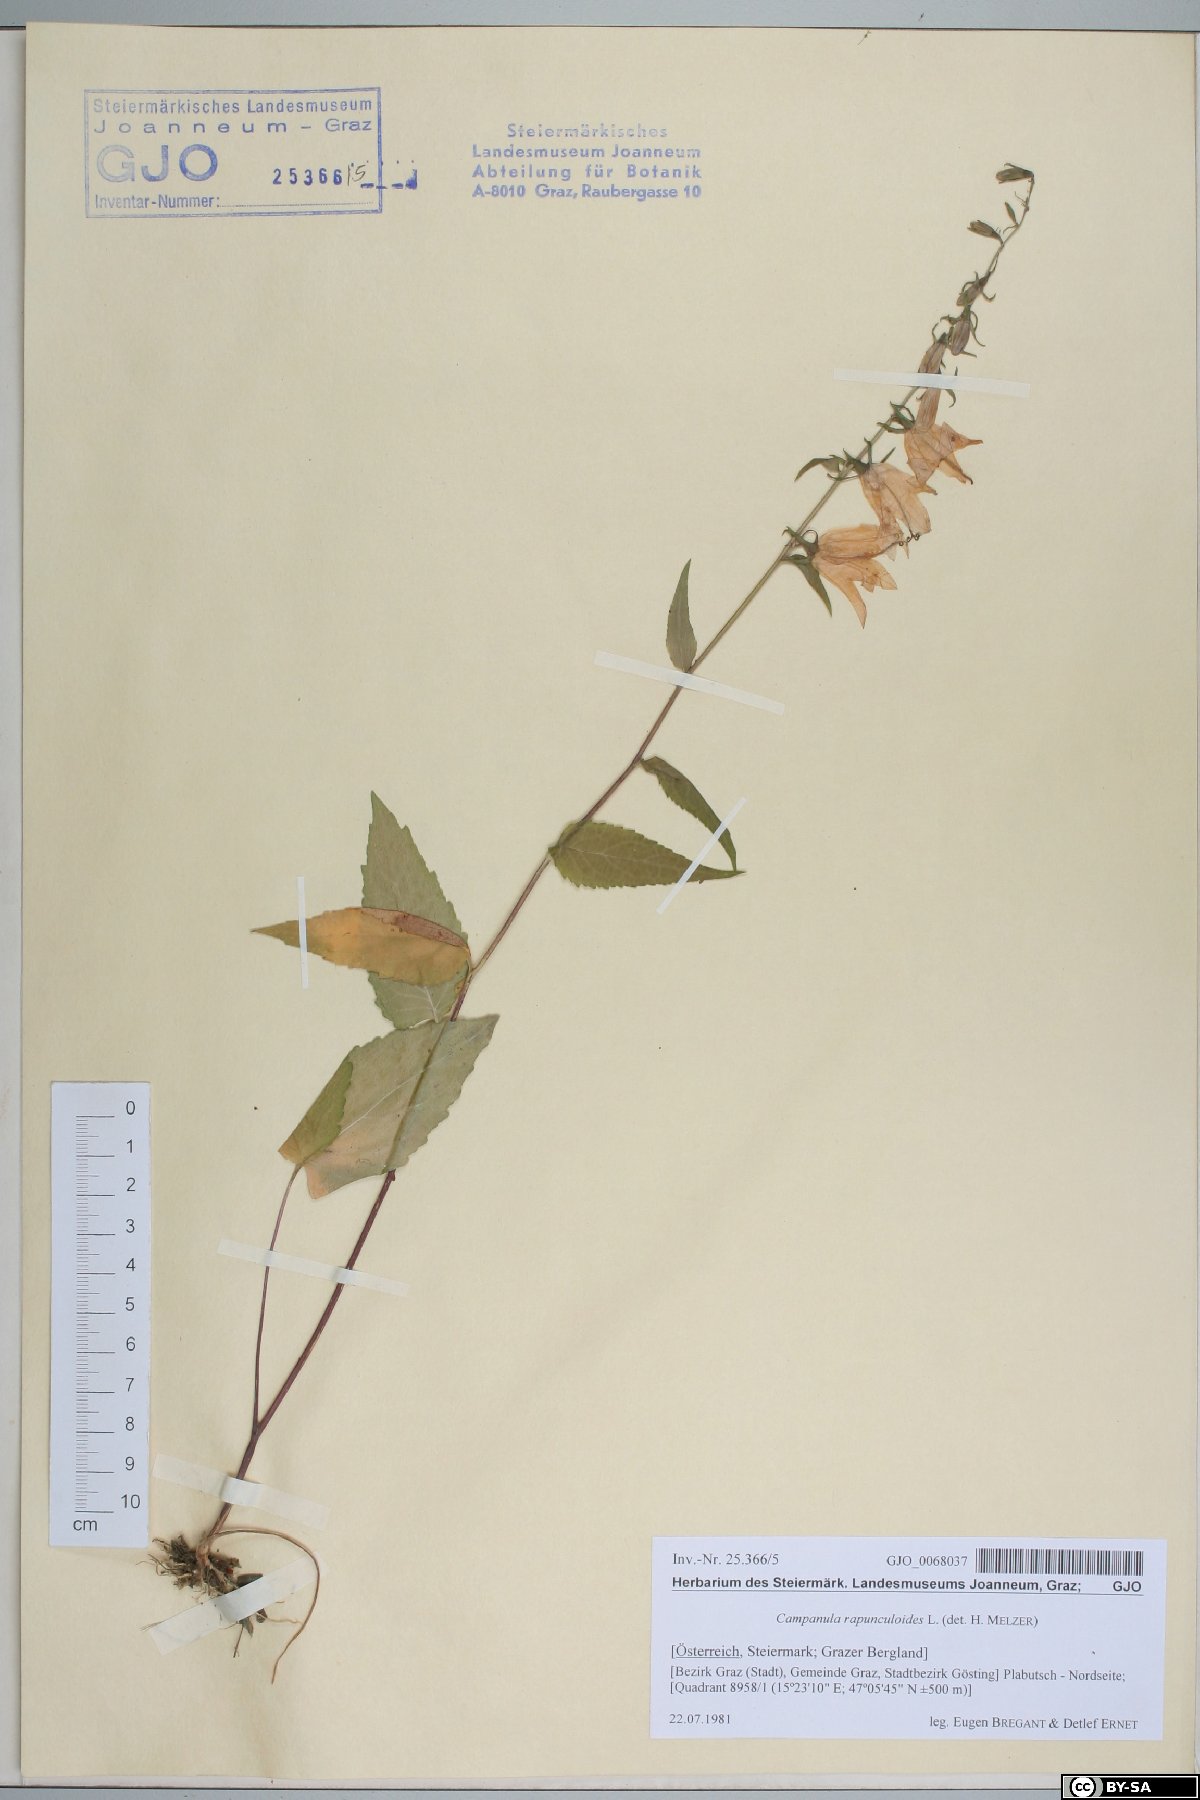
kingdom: Plantae
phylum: Tracheophyta
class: Magnoliopsida
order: Asterales
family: Campanulaceae
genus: Campanula
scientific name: Campanula rapunculoides
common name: Creeping bellflower
